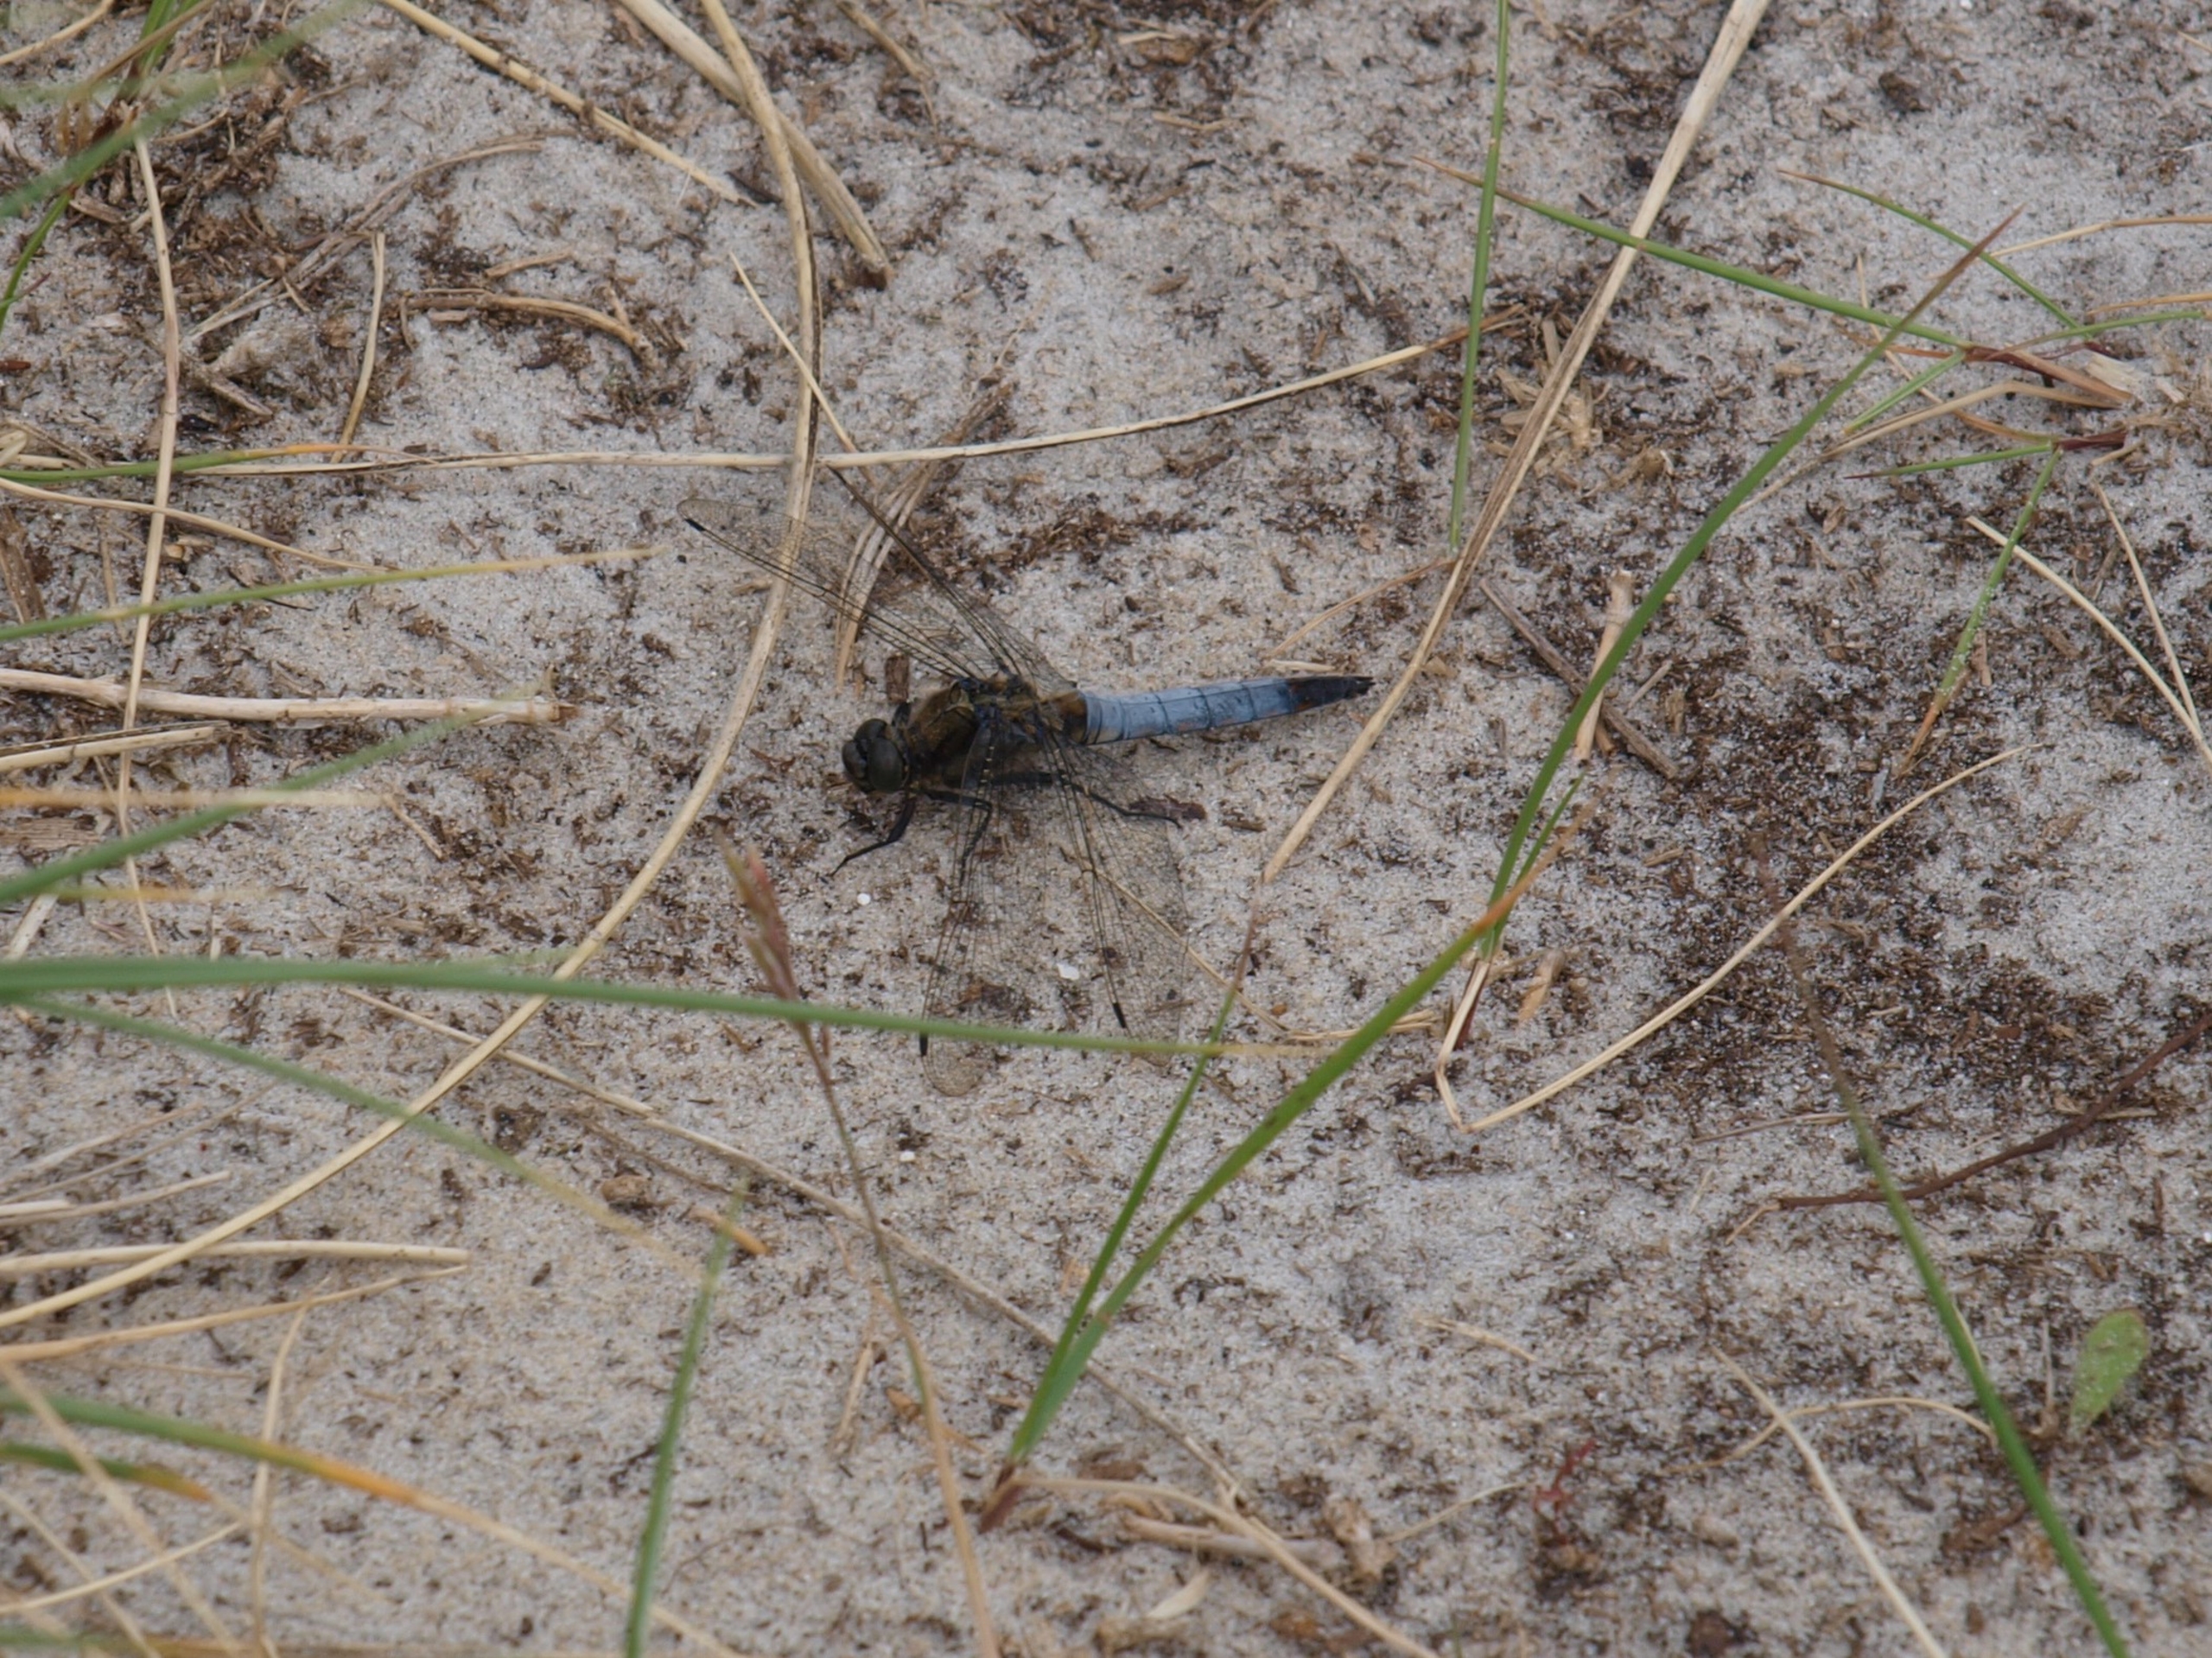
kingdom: Animalia
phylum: Arthropoda
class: Insecta
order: Odonata
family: Libellulidae
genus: Orthetrum
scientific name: Orthetrum cancellatum
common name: Stor blåpil
